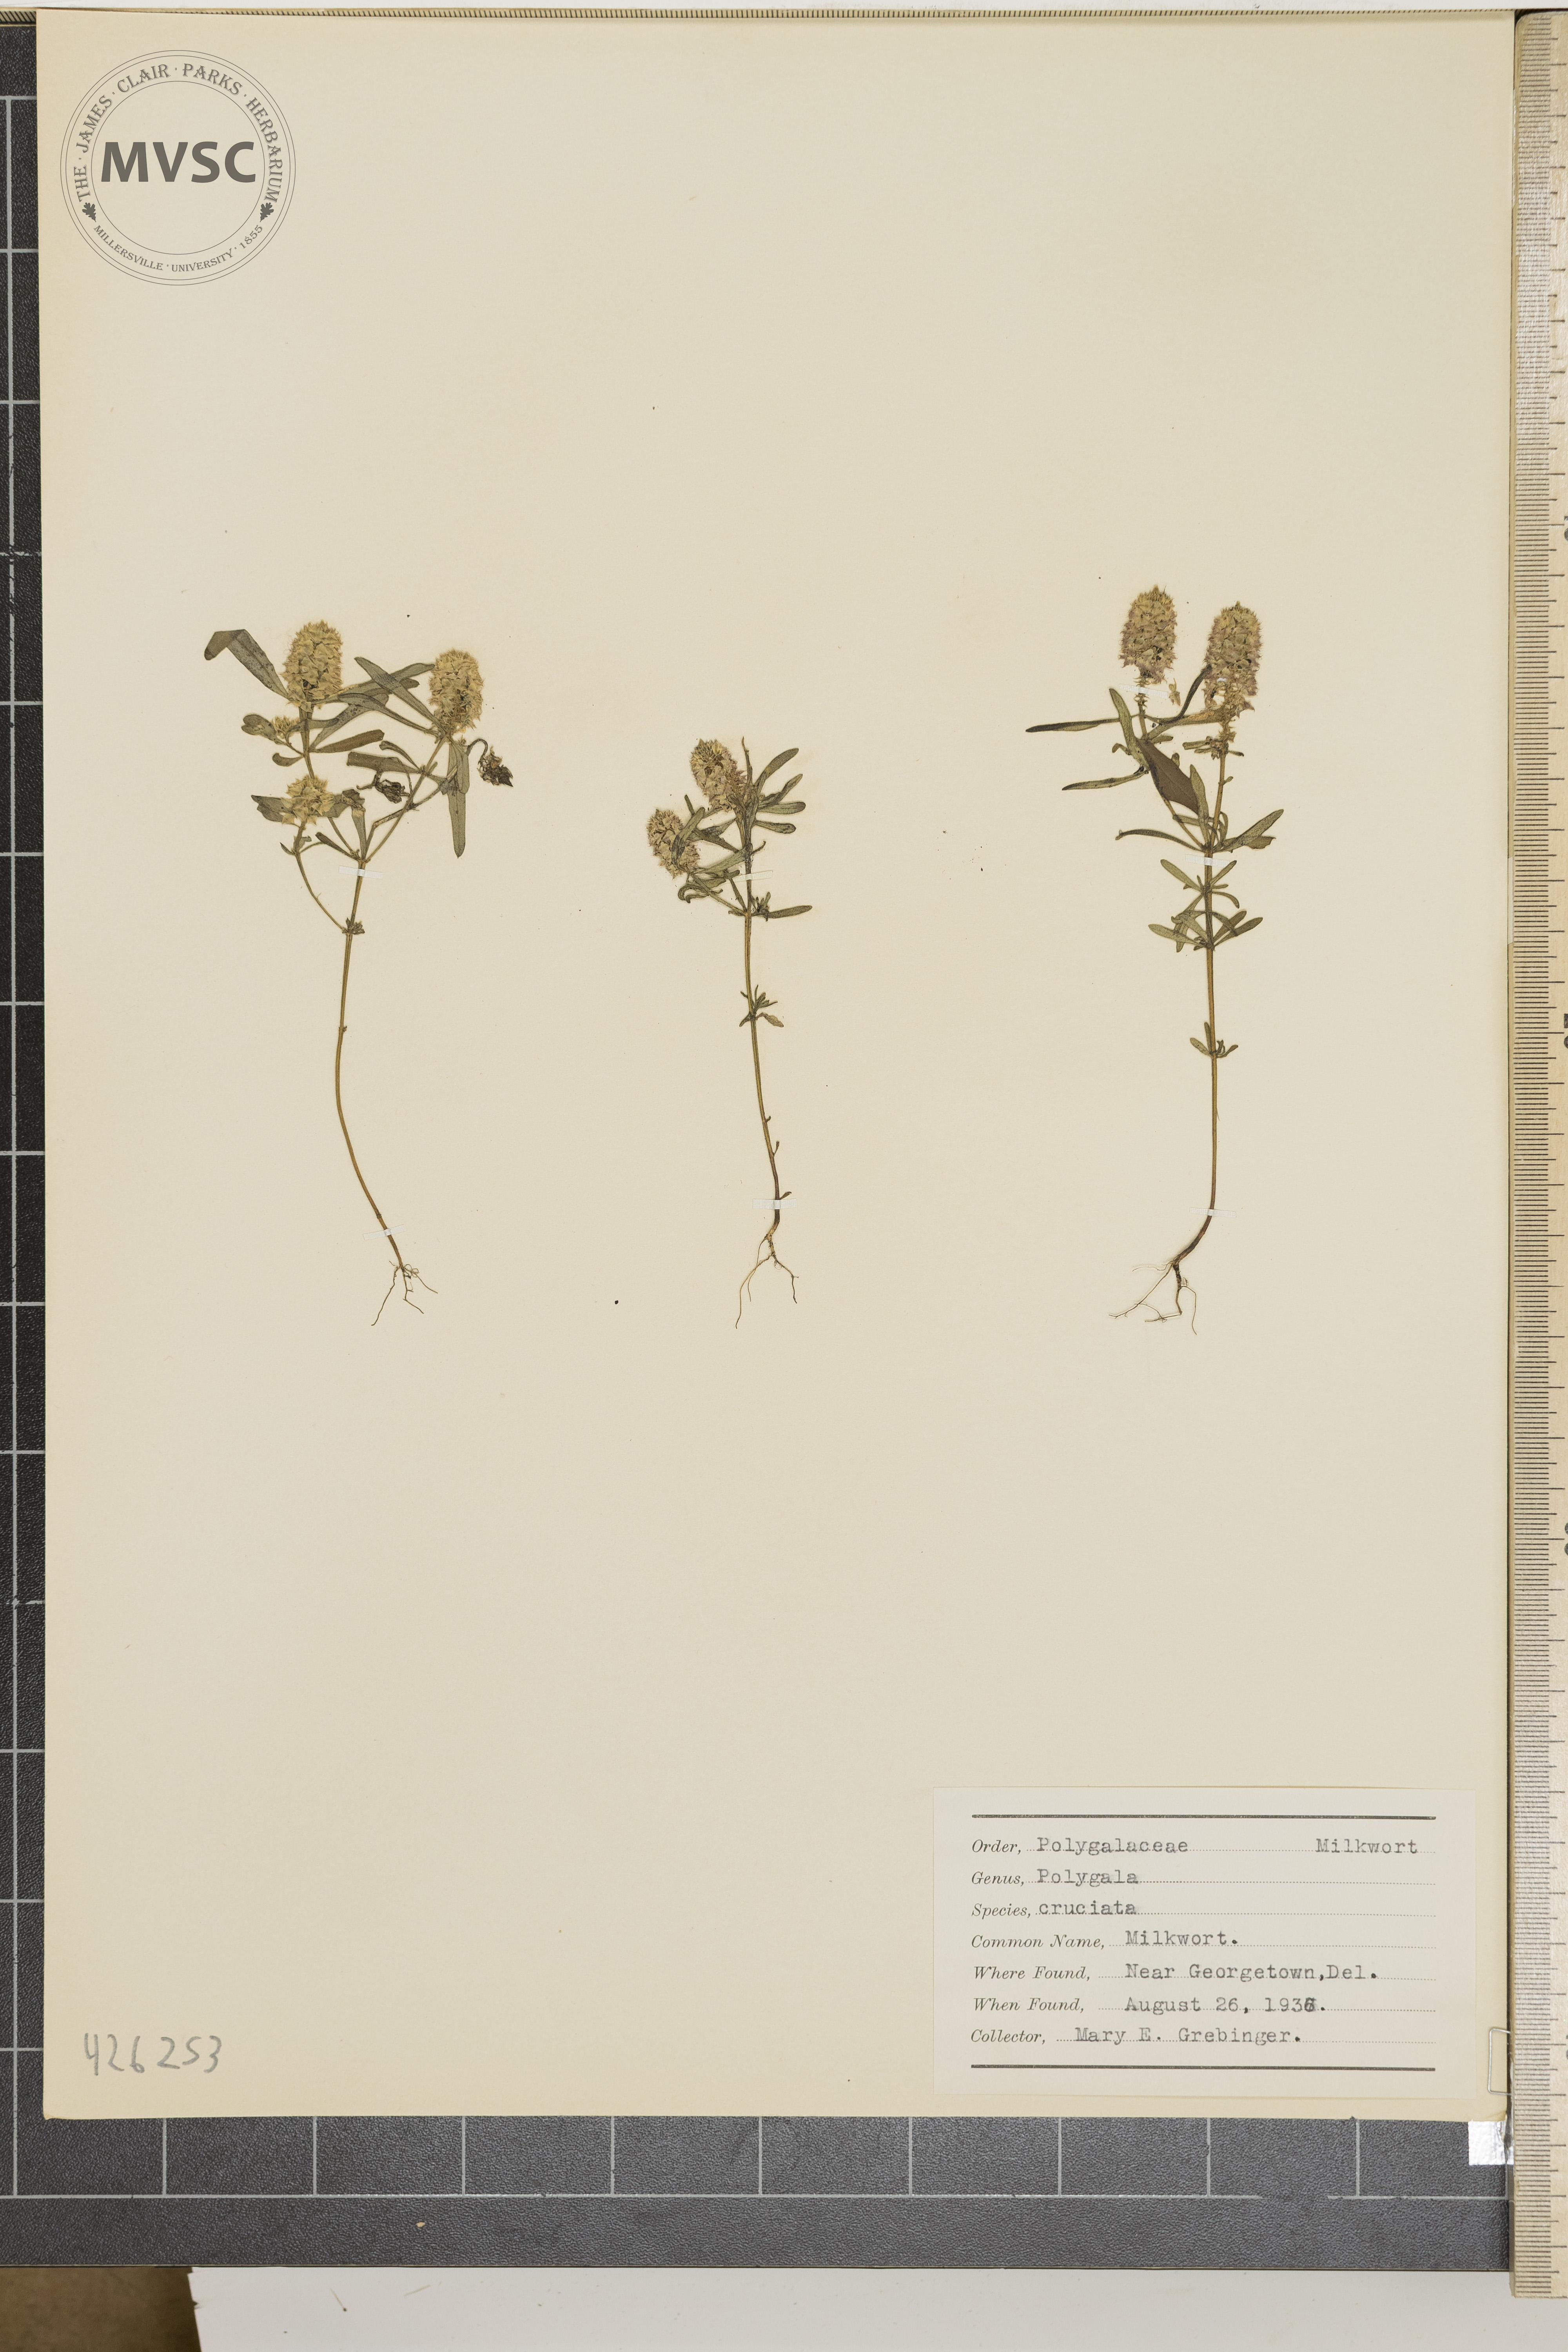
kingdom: Plantae
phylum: Tracheophyta
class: Magnoliopsida
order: Fabales
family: Polygalaceae
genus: Polygala
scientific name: Polygala cruciata
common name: Milkwort
